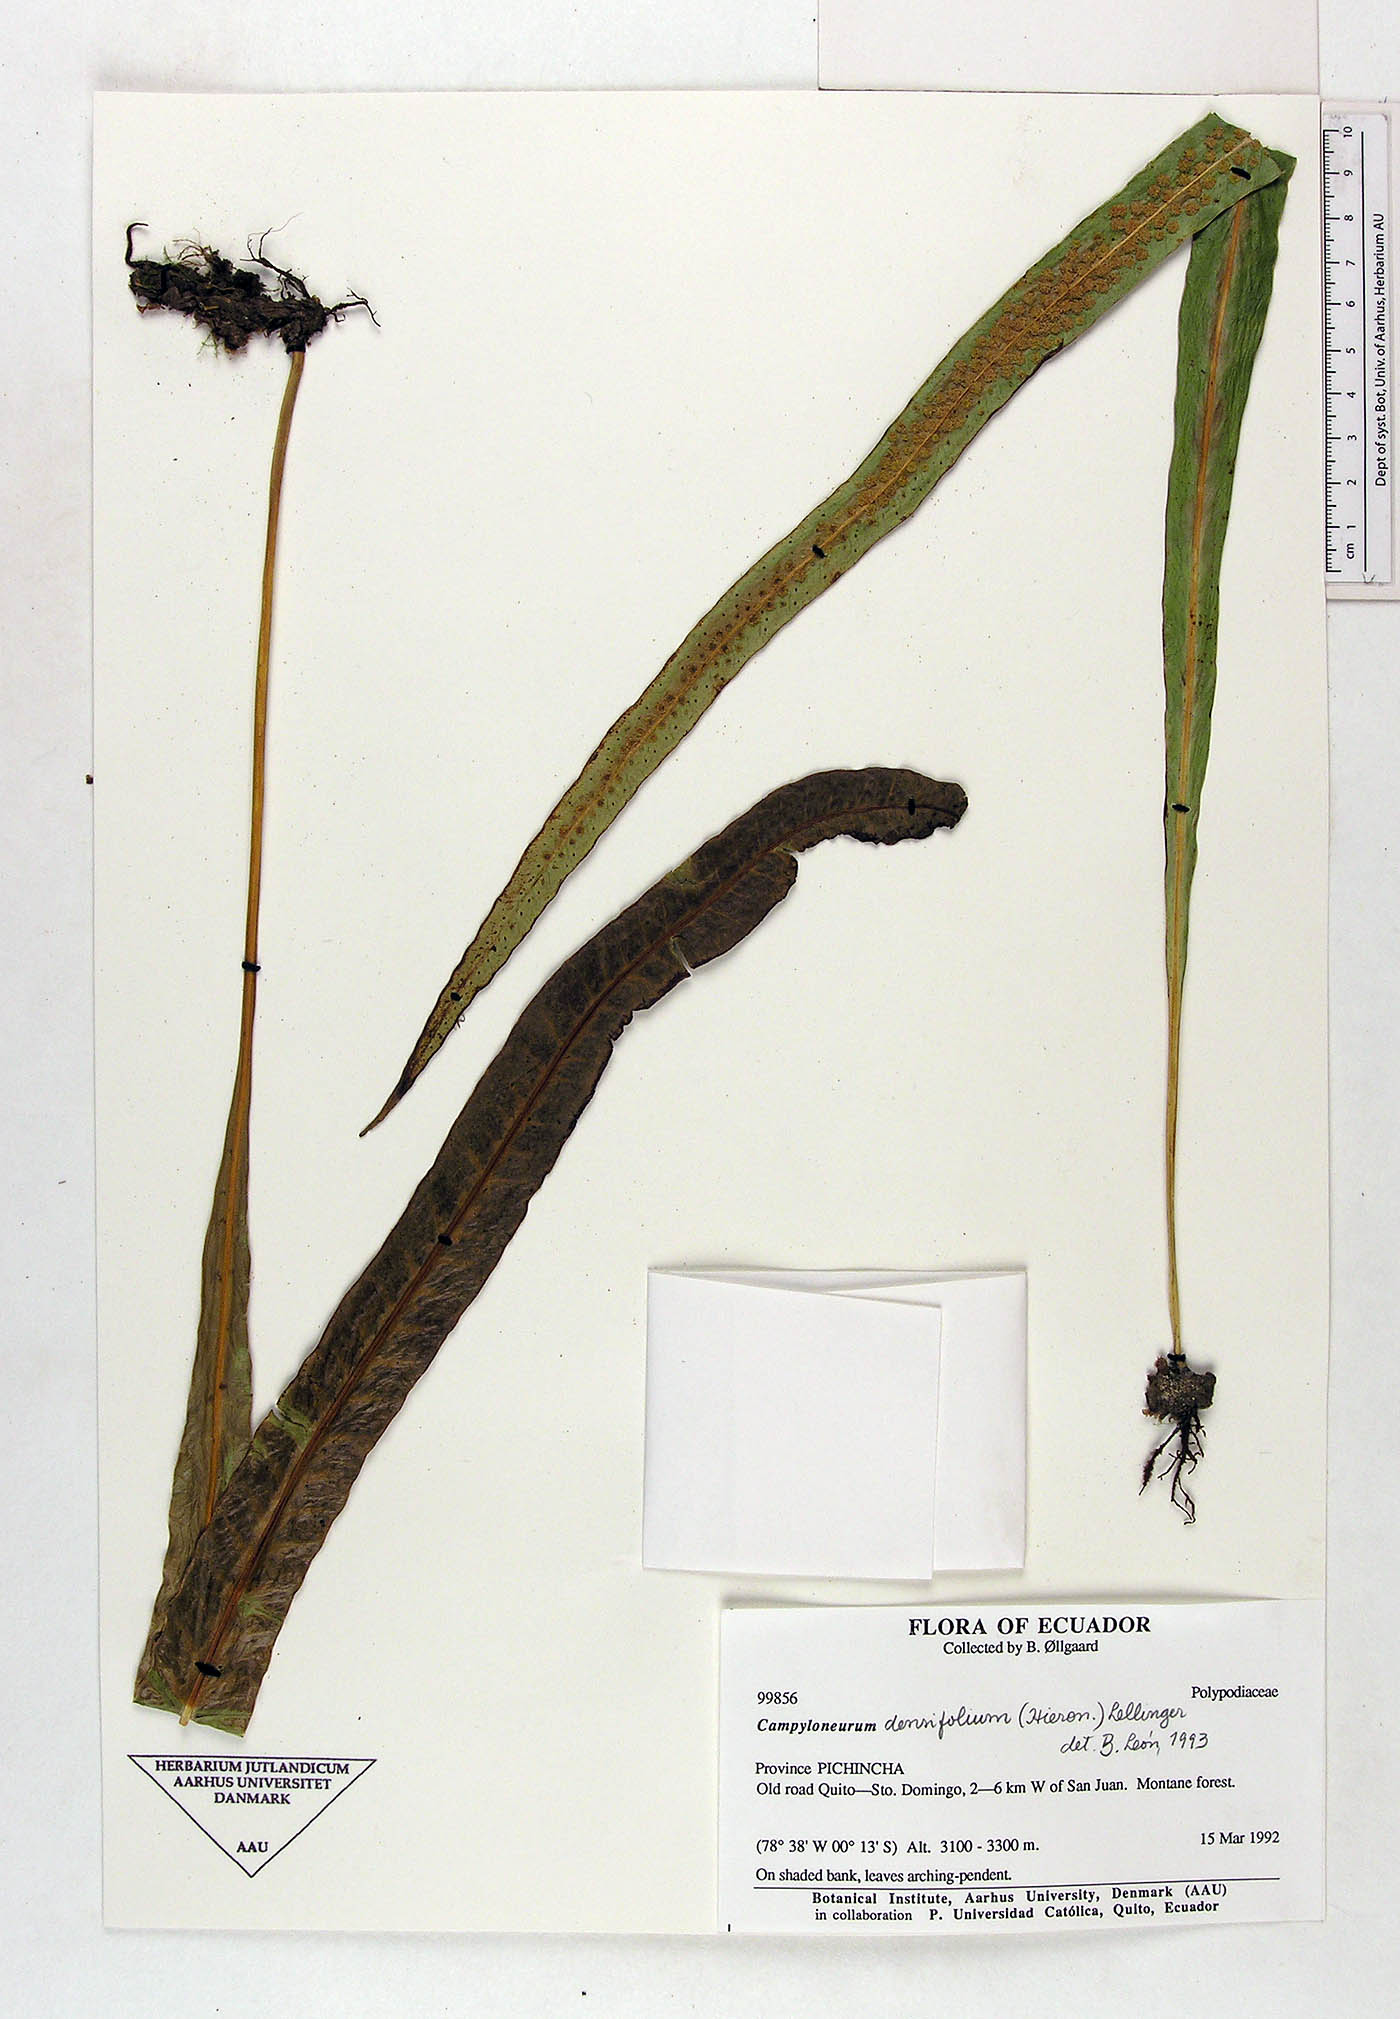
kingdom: Plantae
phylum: Tracheophyta
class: Polypodiopsida
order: Polypodiales
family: Polypodiaceae
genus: Campyloneurum
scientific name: Campyloneurum densifolium
